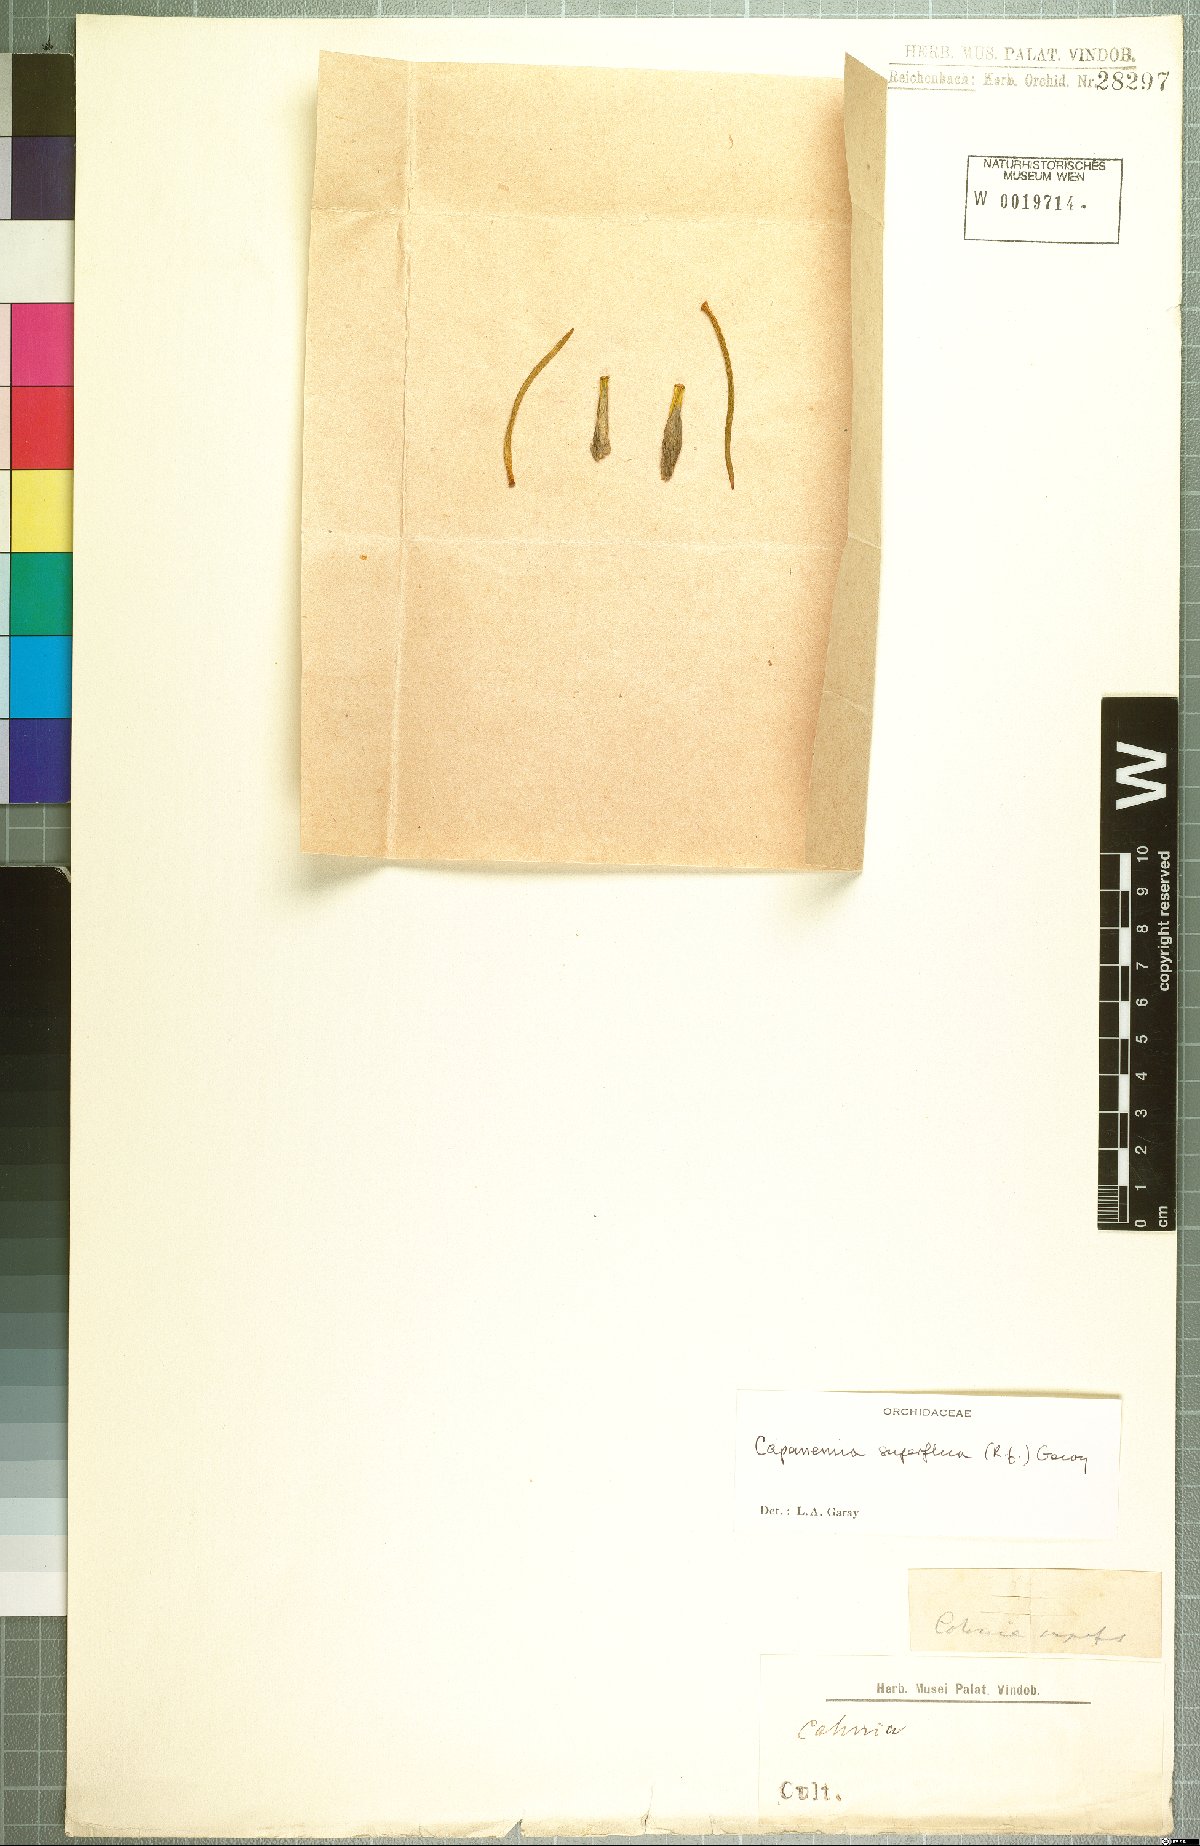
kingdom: Plantae
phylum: Tracheophyta
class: Liliopsida
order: Asparagales
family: Orchidaceae
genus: Capanemia
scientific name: Capanemia superflua
